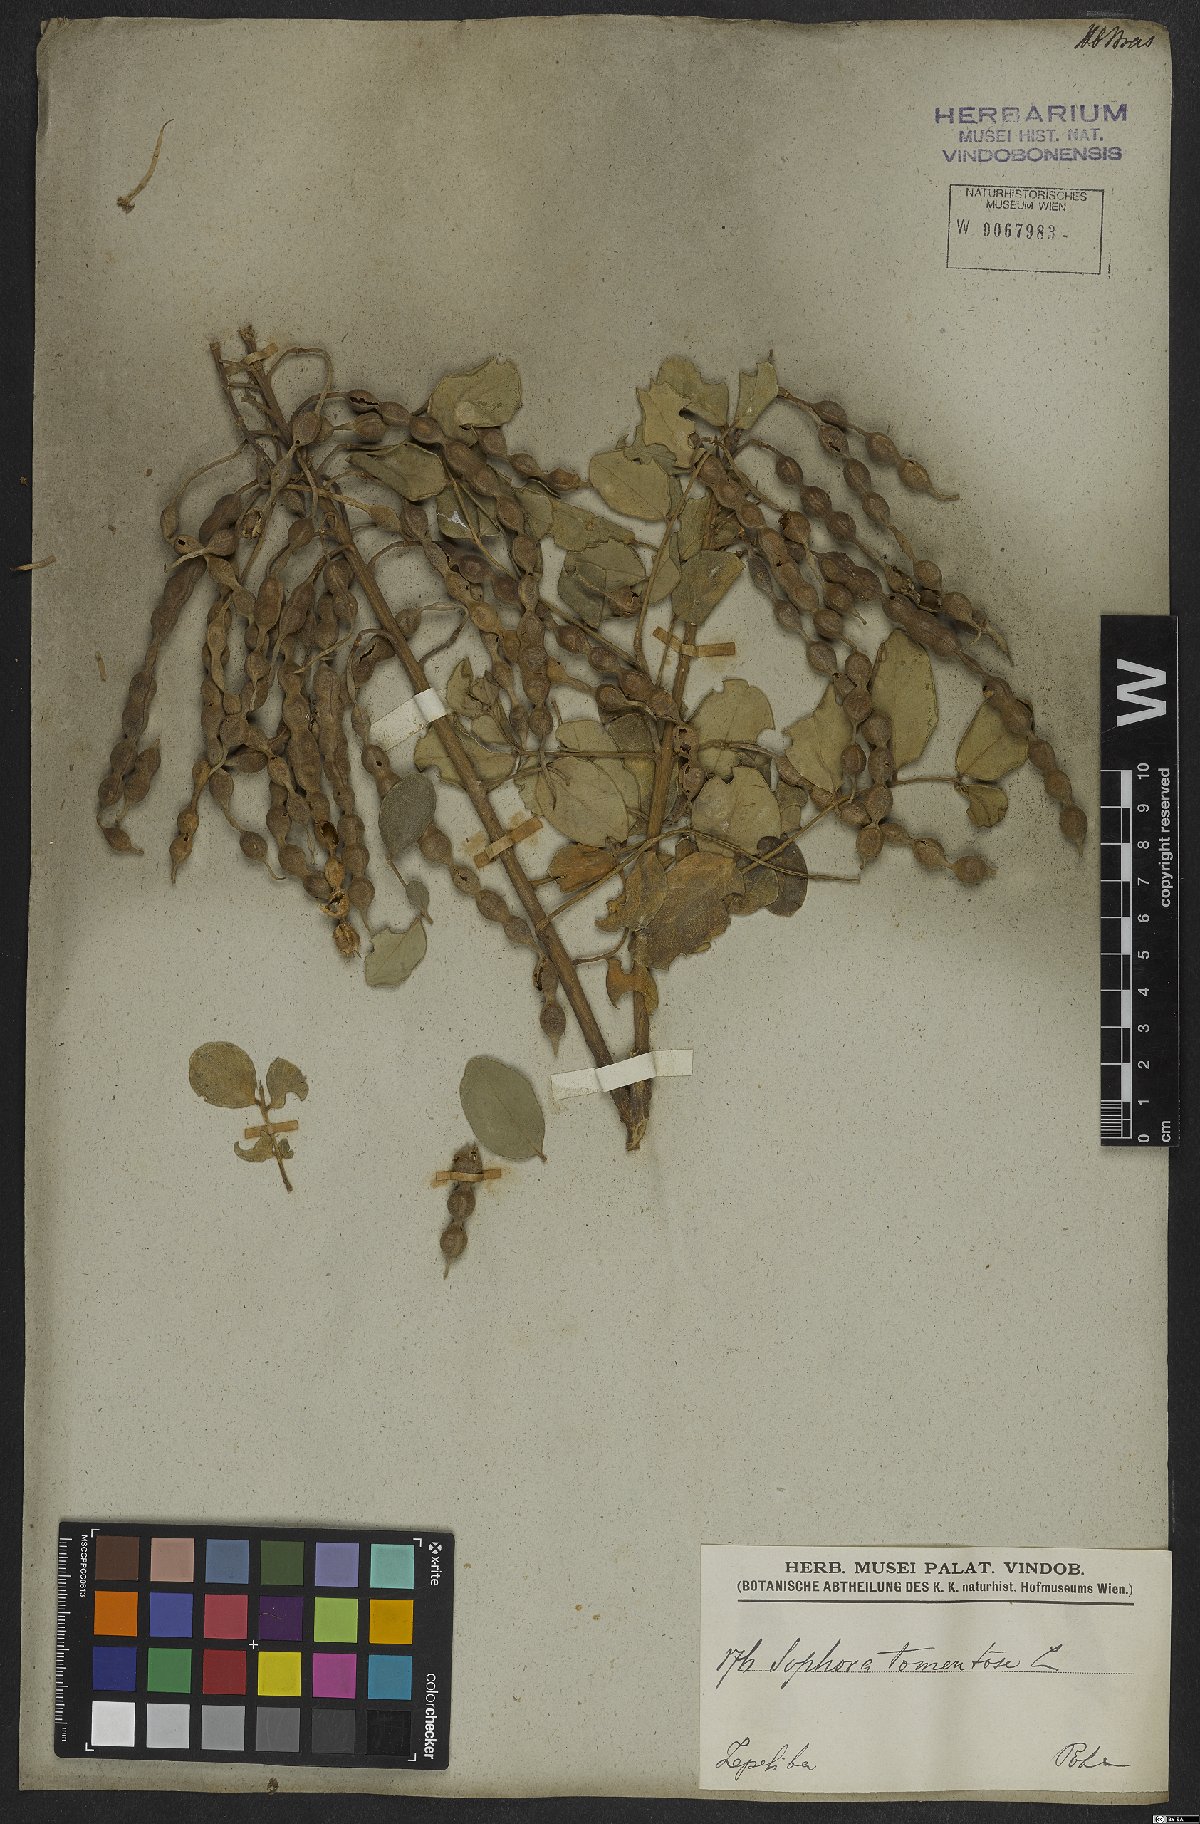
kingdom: Plantae
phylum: Tracheophyta
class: Magnoliopsida
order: Fabales
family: Fabaceae
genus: Sophora
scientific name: Sophora tomentosa
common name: Yellow necklacepod
